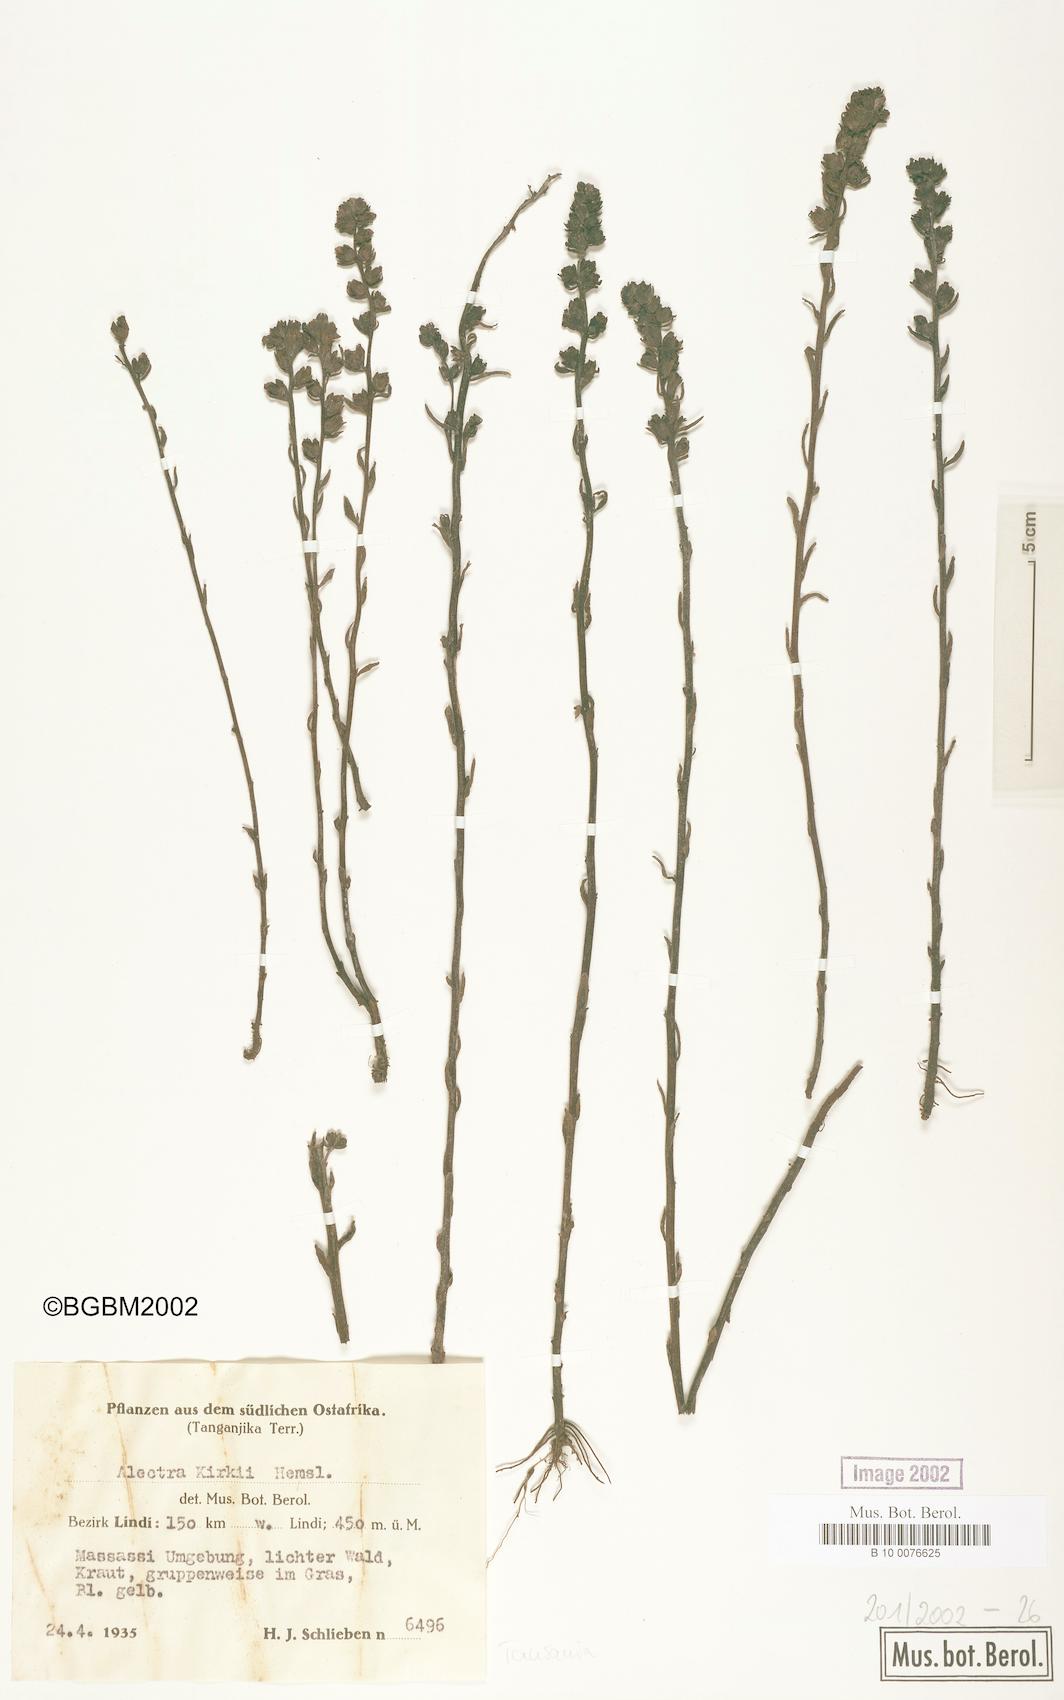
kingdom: Plantae
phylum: Tracheophyta
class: Magnoliopsida
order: Lamiales
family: Orobanchaceae
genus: Alectra
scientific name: Alectra orobanchoides
